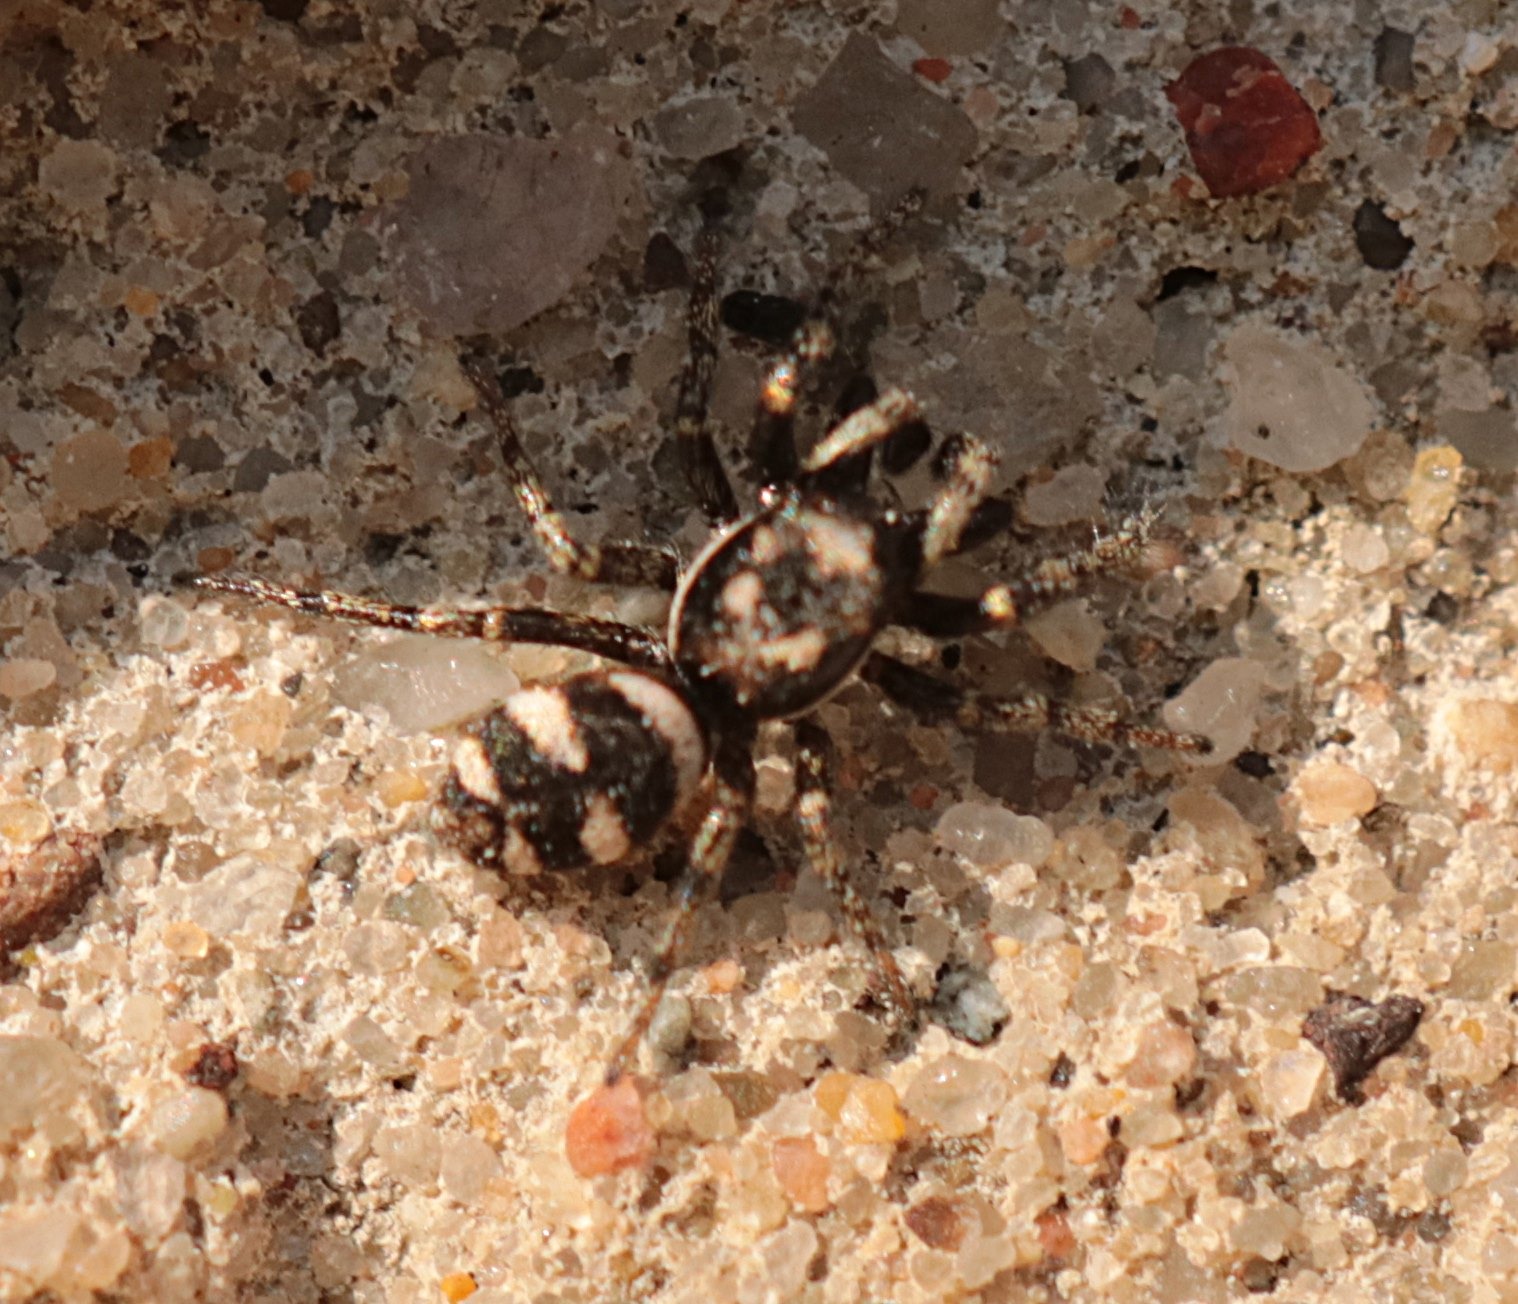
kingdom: Animalia
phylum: Arthropoda
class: Arachnida
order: Araneae
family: Salticidae
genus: Salticus
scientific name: Salticus scenicus
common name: Almindelig zebraedderkop
